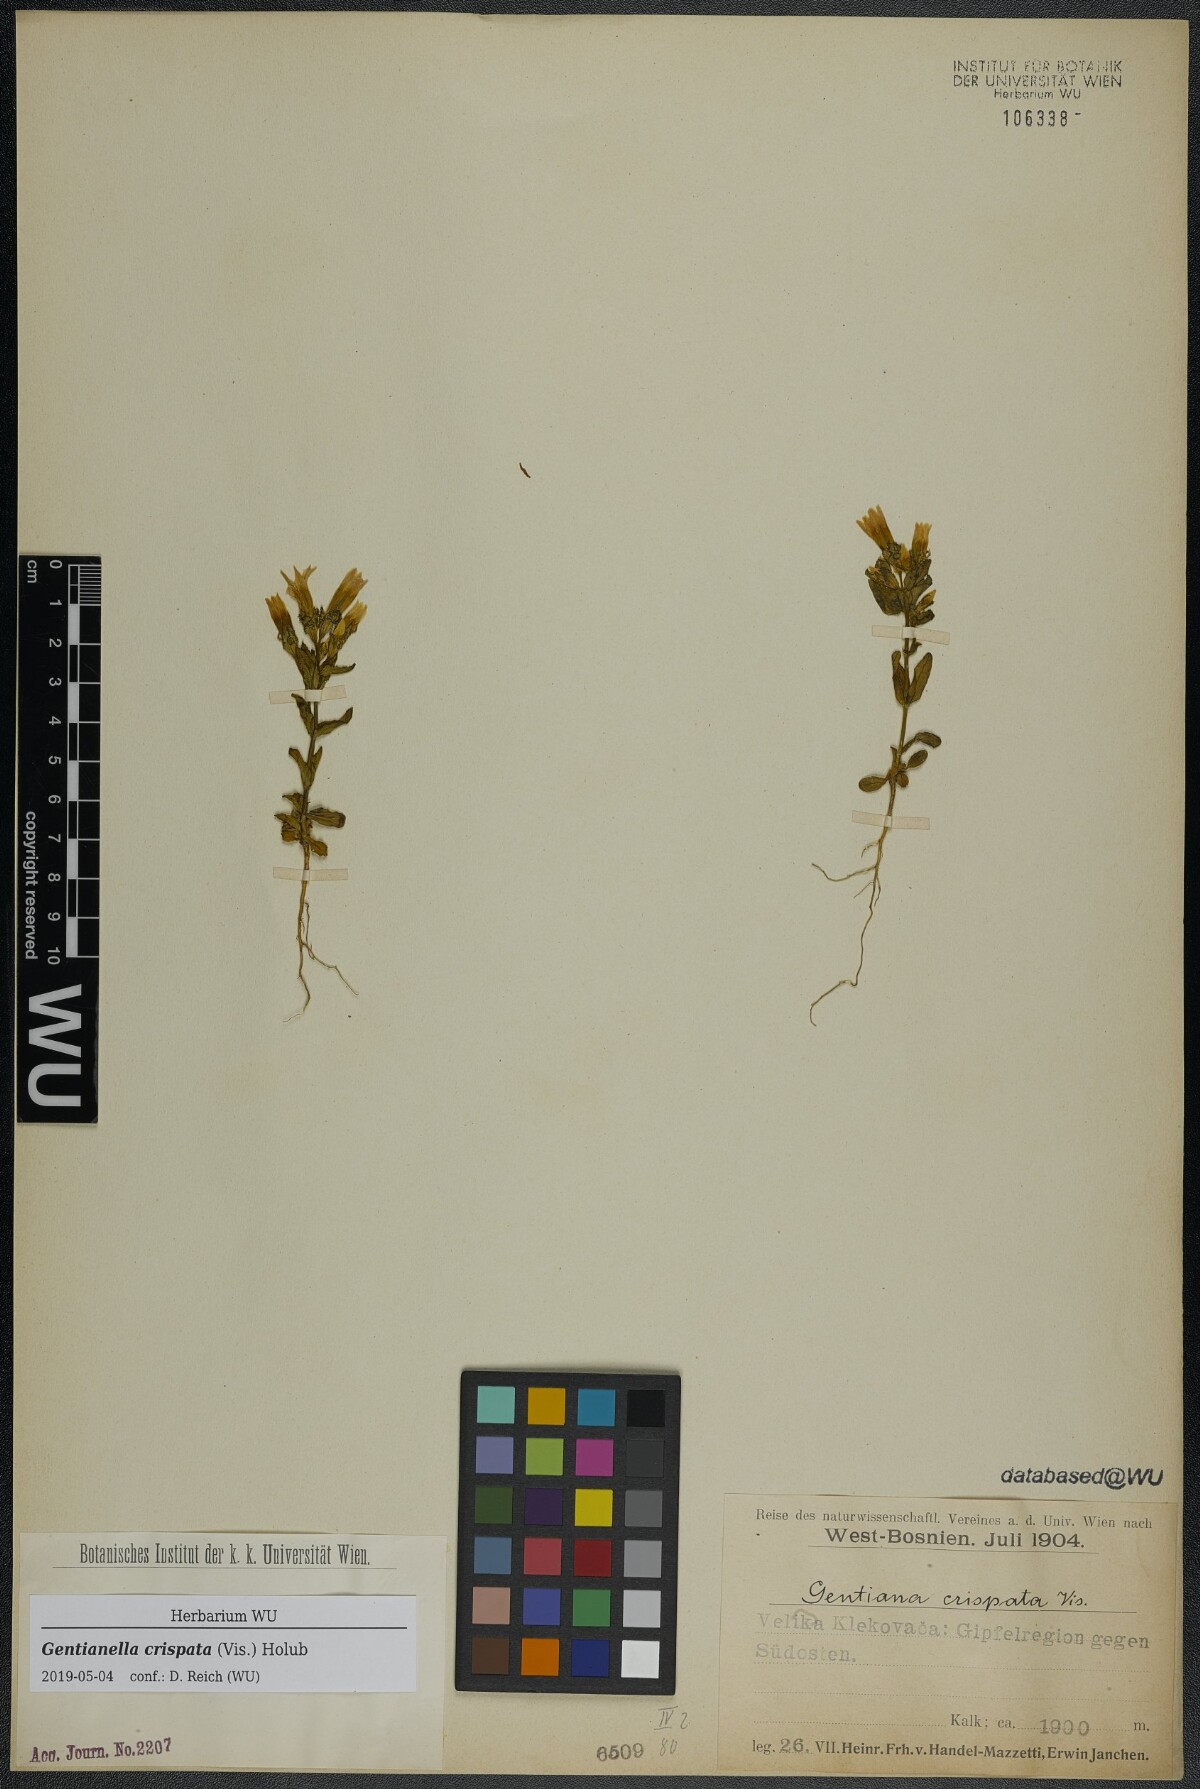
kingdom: Plantae
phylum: Tracheophyta
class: Magnoliopsida
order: Gentianales
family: Gentianaceae
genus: Gentianella
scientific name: Gentianella crispata
